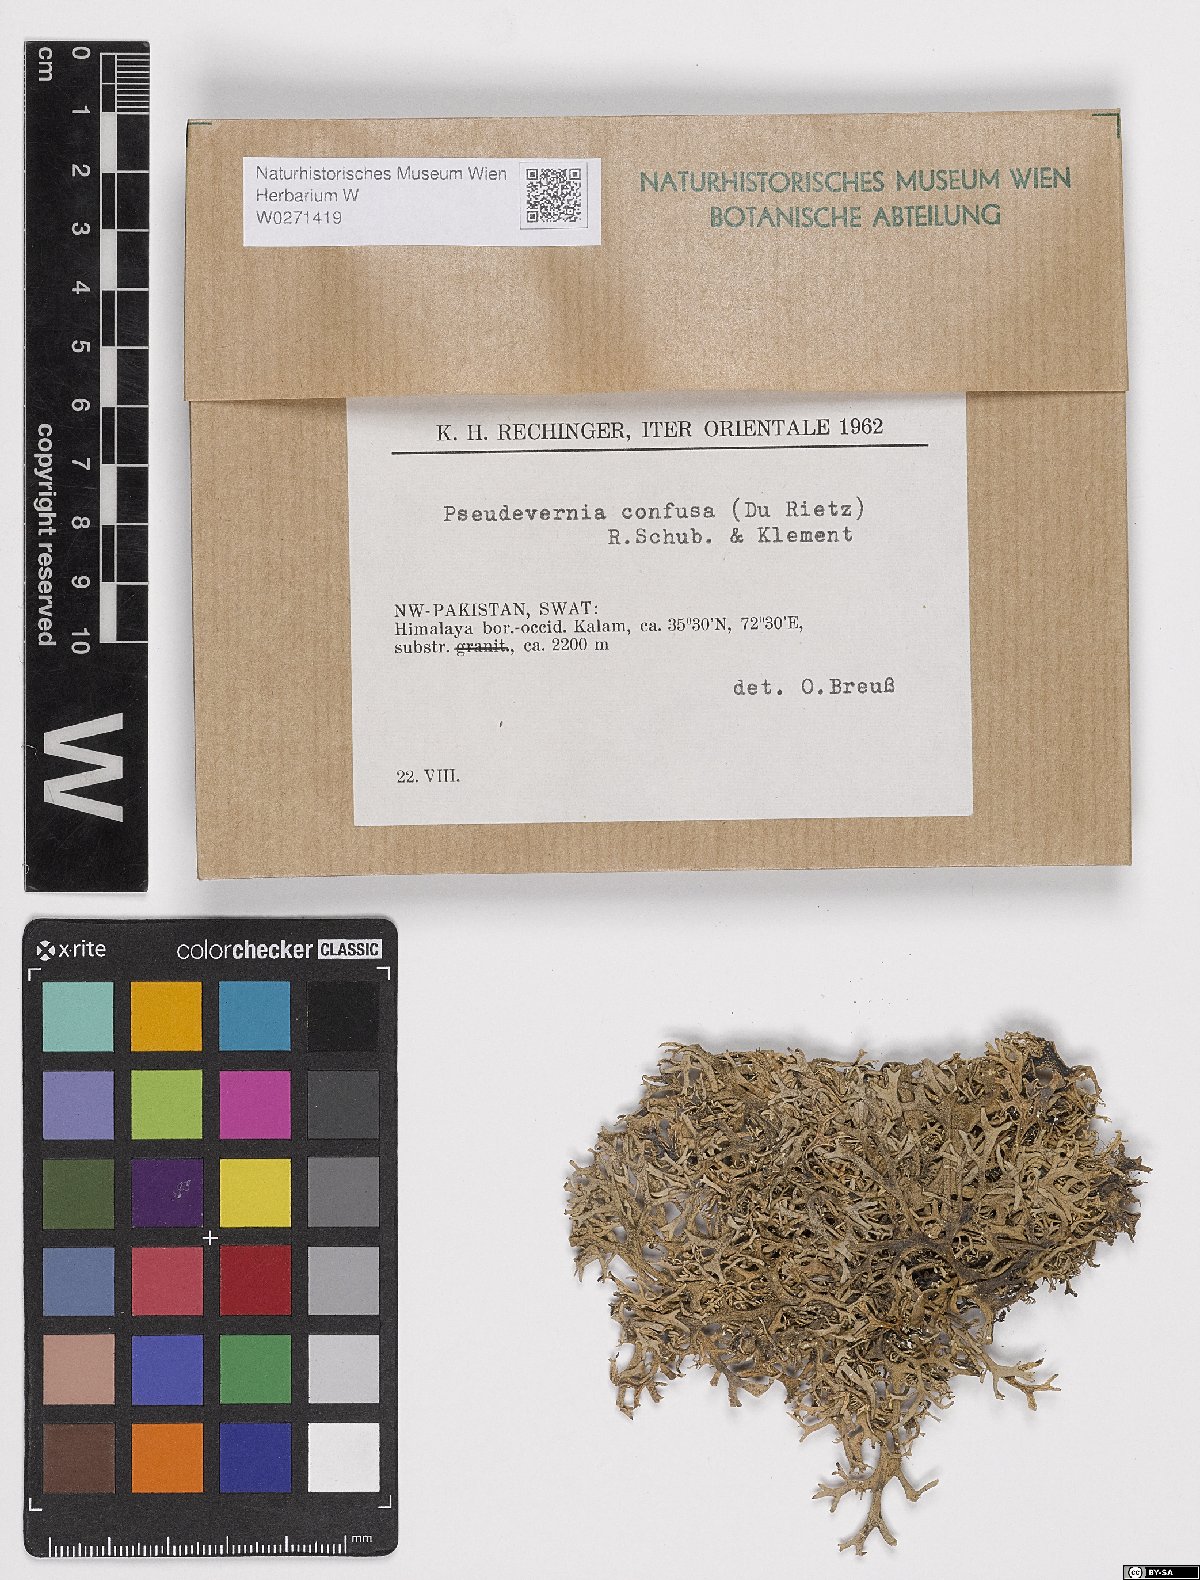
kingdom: Fungi
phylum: Ascomycota
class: Lecanoromycetes
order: Lecanorales
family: Parmeliaceae
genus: Pseudevernia
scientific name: Pseudevernia
